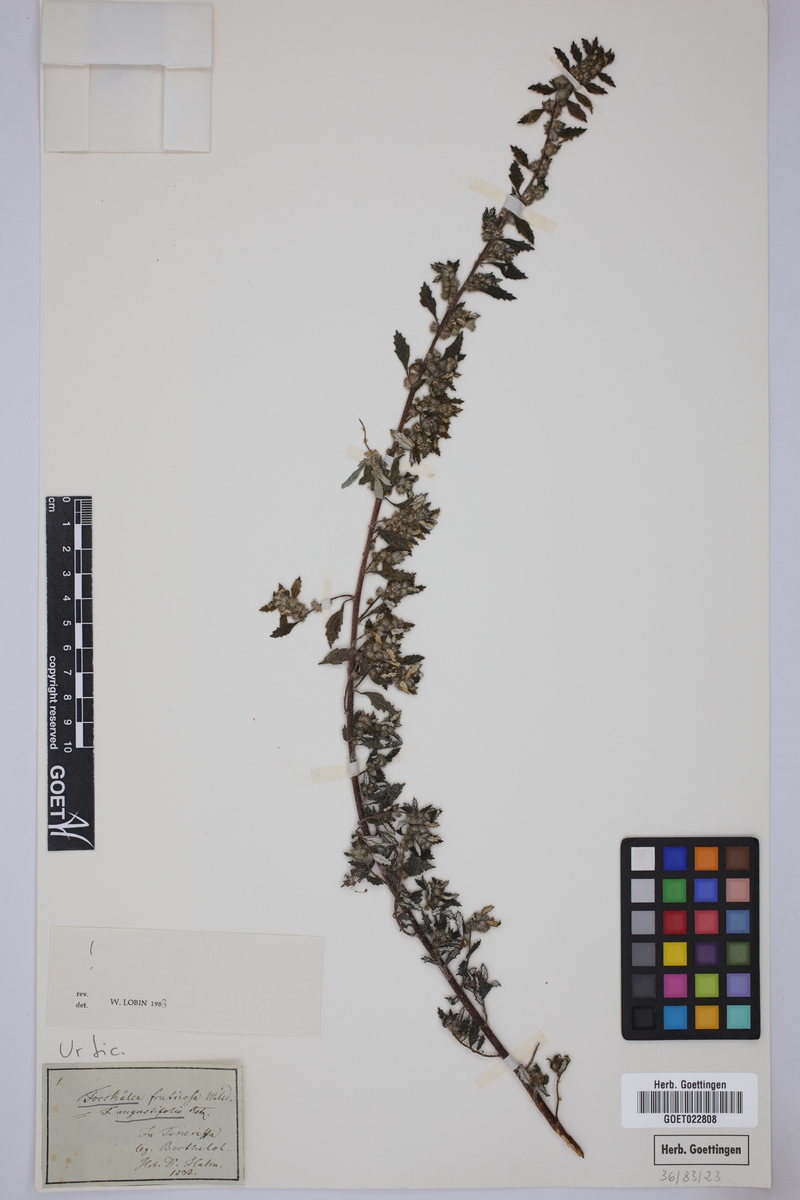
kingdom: Plantae
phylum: Tracheophyta
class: Magnoliopsida
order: Rosales
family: Urticaceae
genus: Forsskaolea
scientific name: Forsskaolea angustifolia
